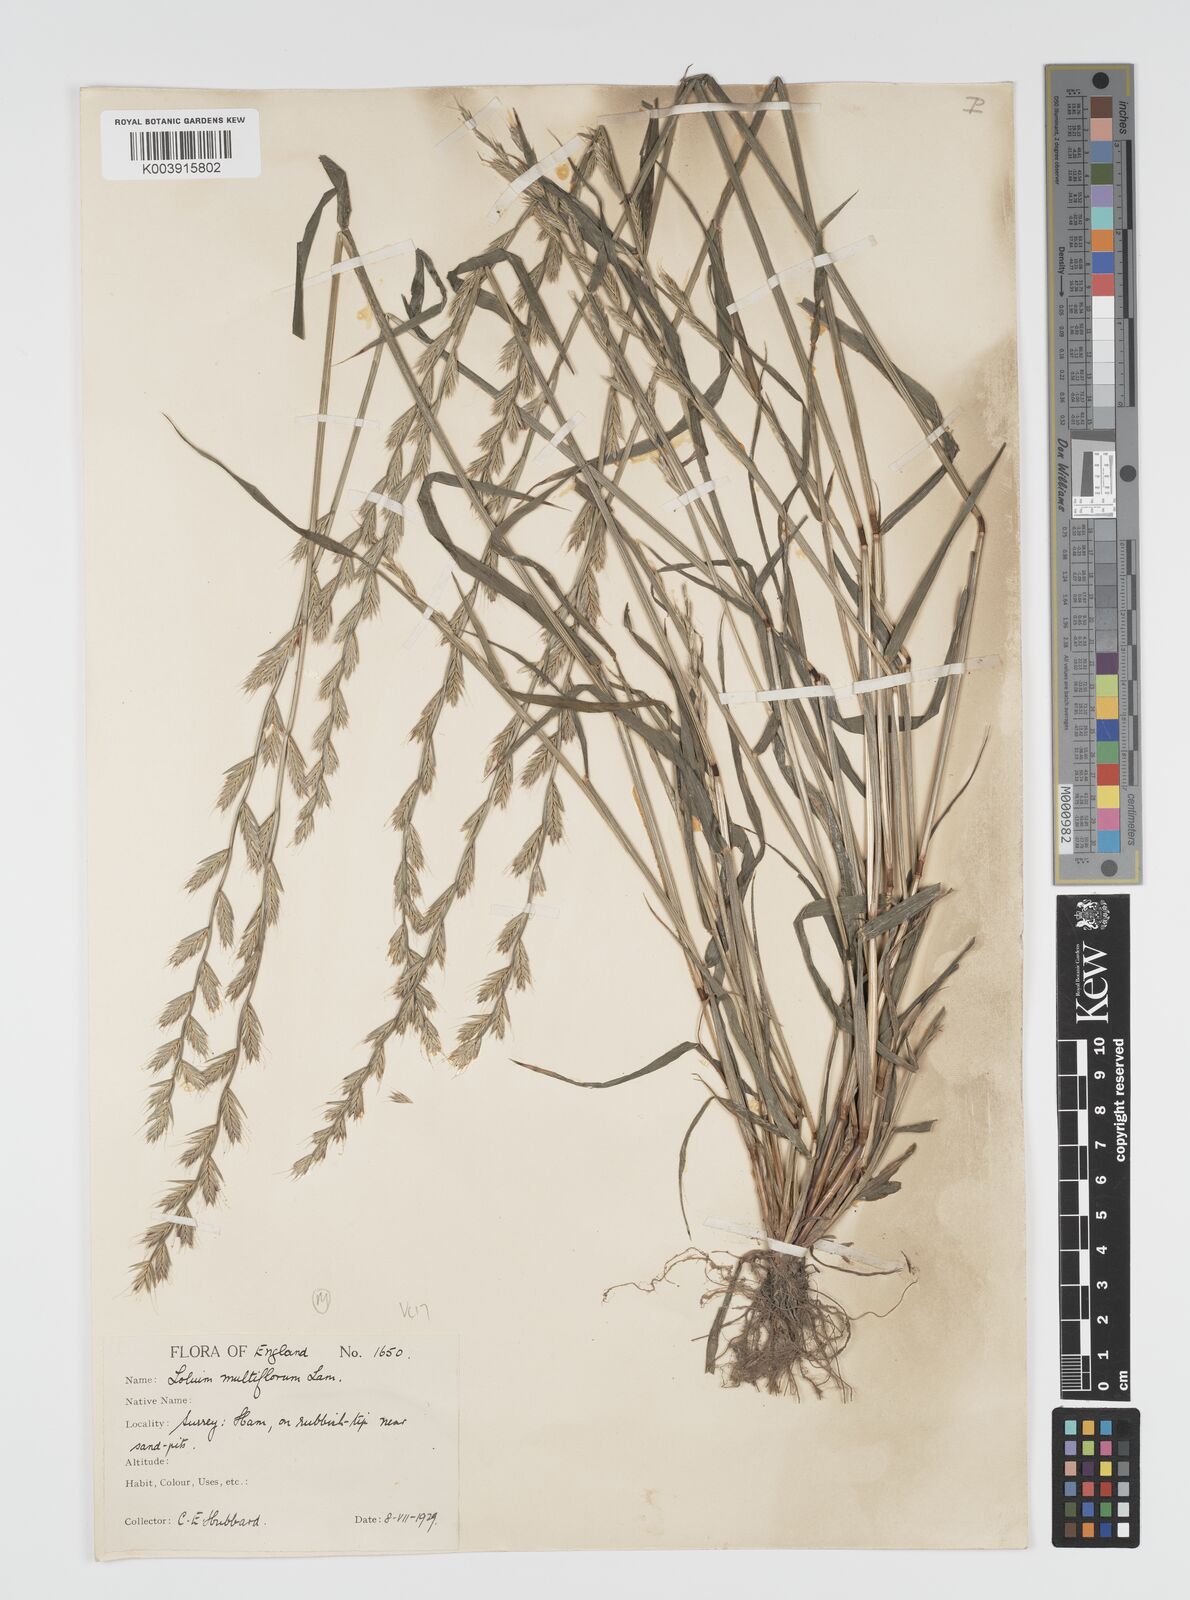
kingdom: Plantae
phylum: Tracheophyta
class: Liliopsida
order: Poales
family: Poaceae
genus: Lolium
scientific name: Lolium multiflorum
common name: Annual ryegrass
